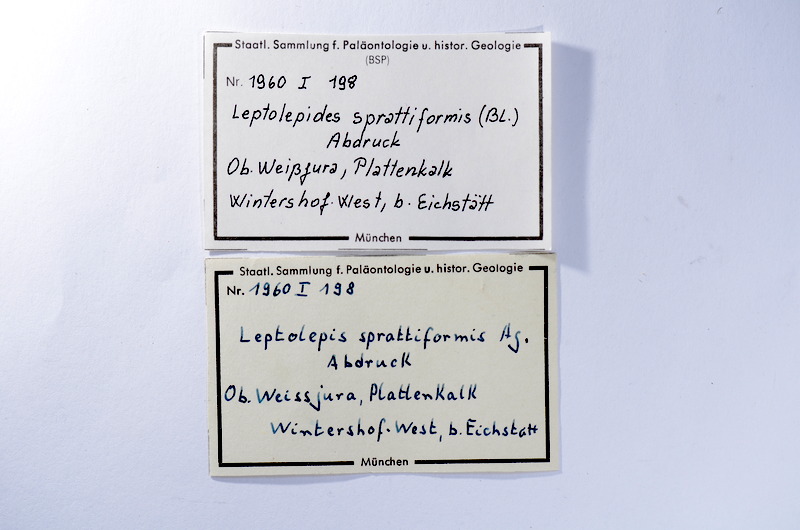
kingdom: Animalia
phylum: Chordata
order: Salmoniformes
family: Orthogonikleithridae
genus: Leptolepides
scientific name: Leptolepides sprattiformis
